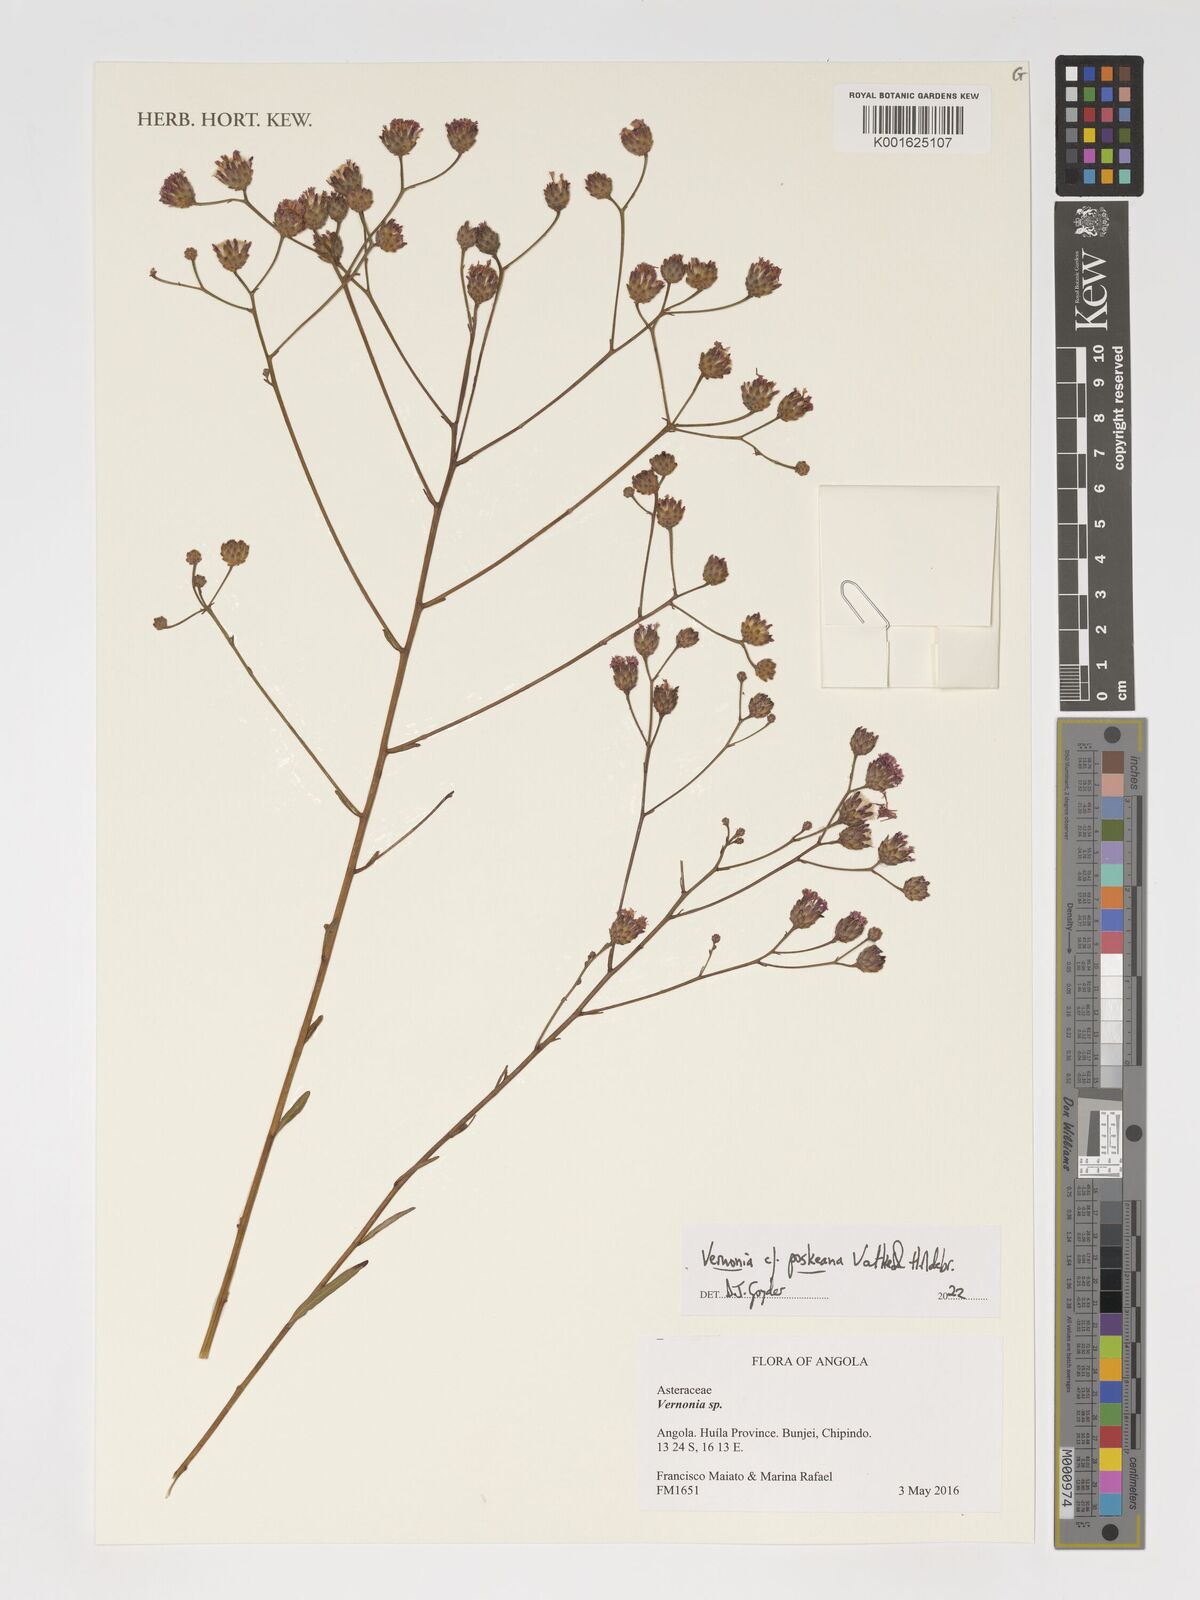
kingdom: Plantae
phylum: Tracheophyta
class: Magnoliopsida
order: Asterales
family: Asteraceae
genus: Crystallopollen
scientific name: Crystallopollen angustifolium
